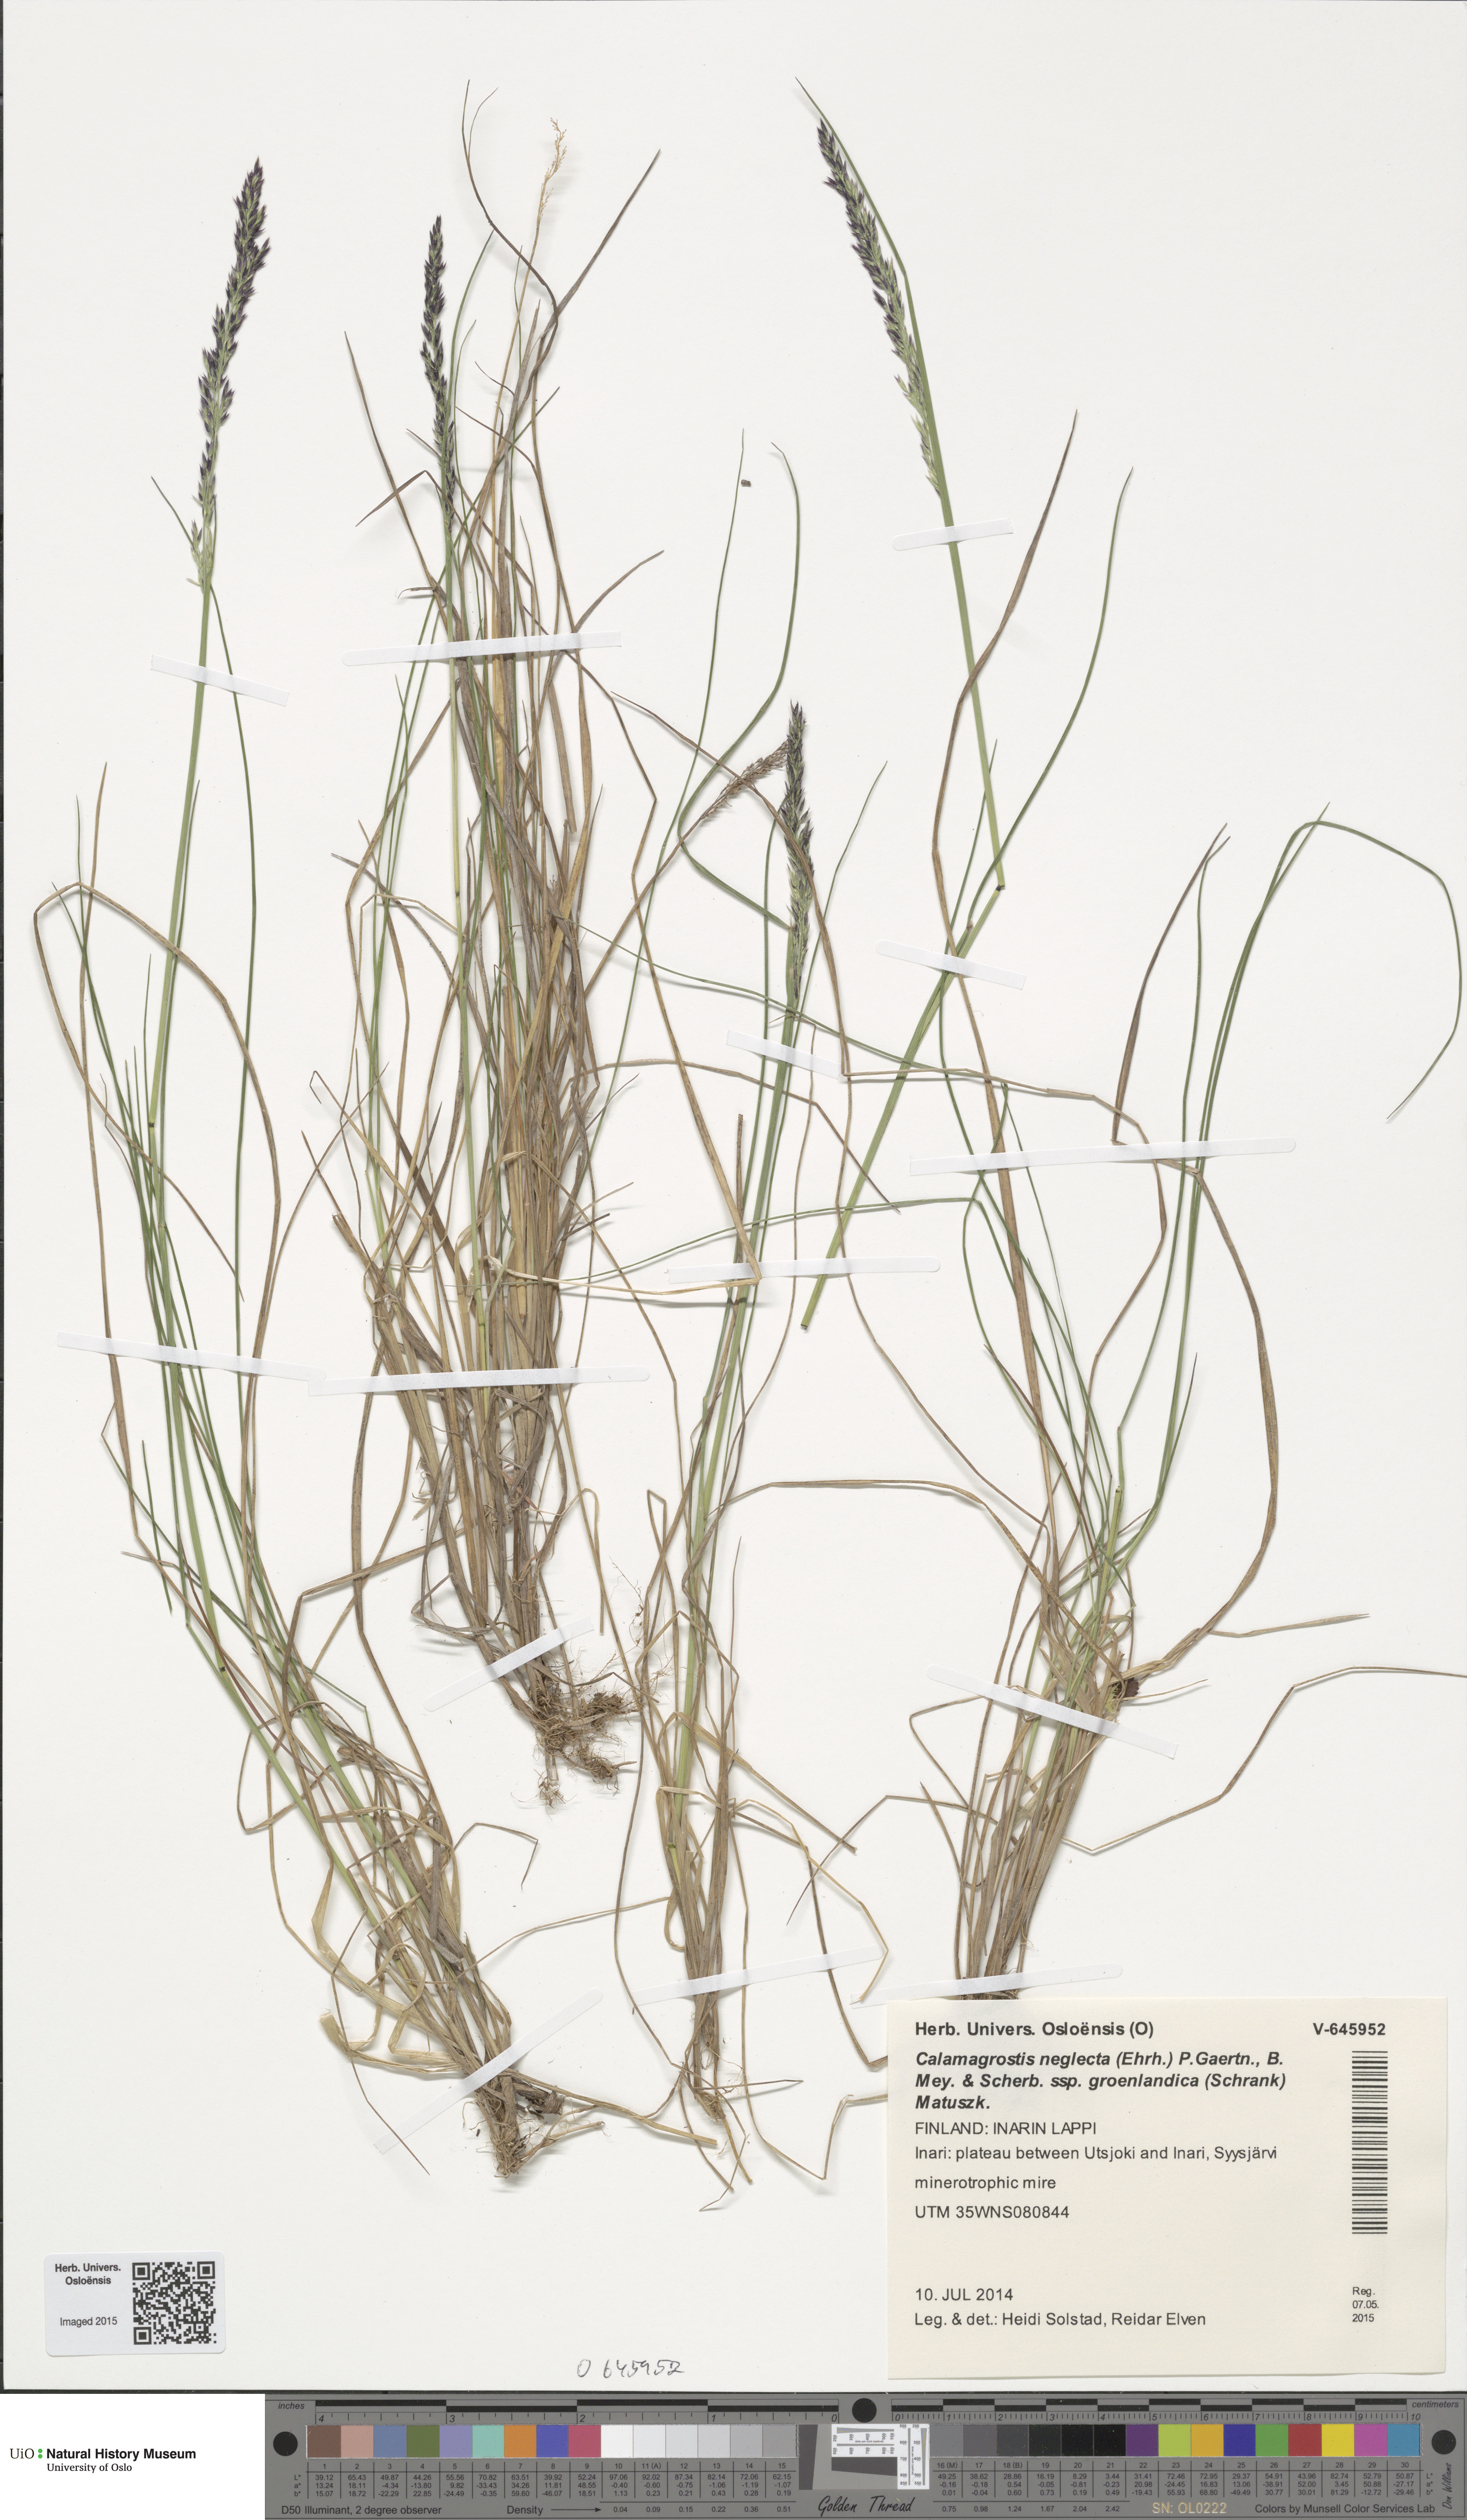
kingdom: Plantae
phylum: Tracheophyta
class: Liliopsida
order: Poales
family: Poaceae
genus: Calamagrostis
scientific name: Calamagrostis stricta
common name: Narrow small-reed
